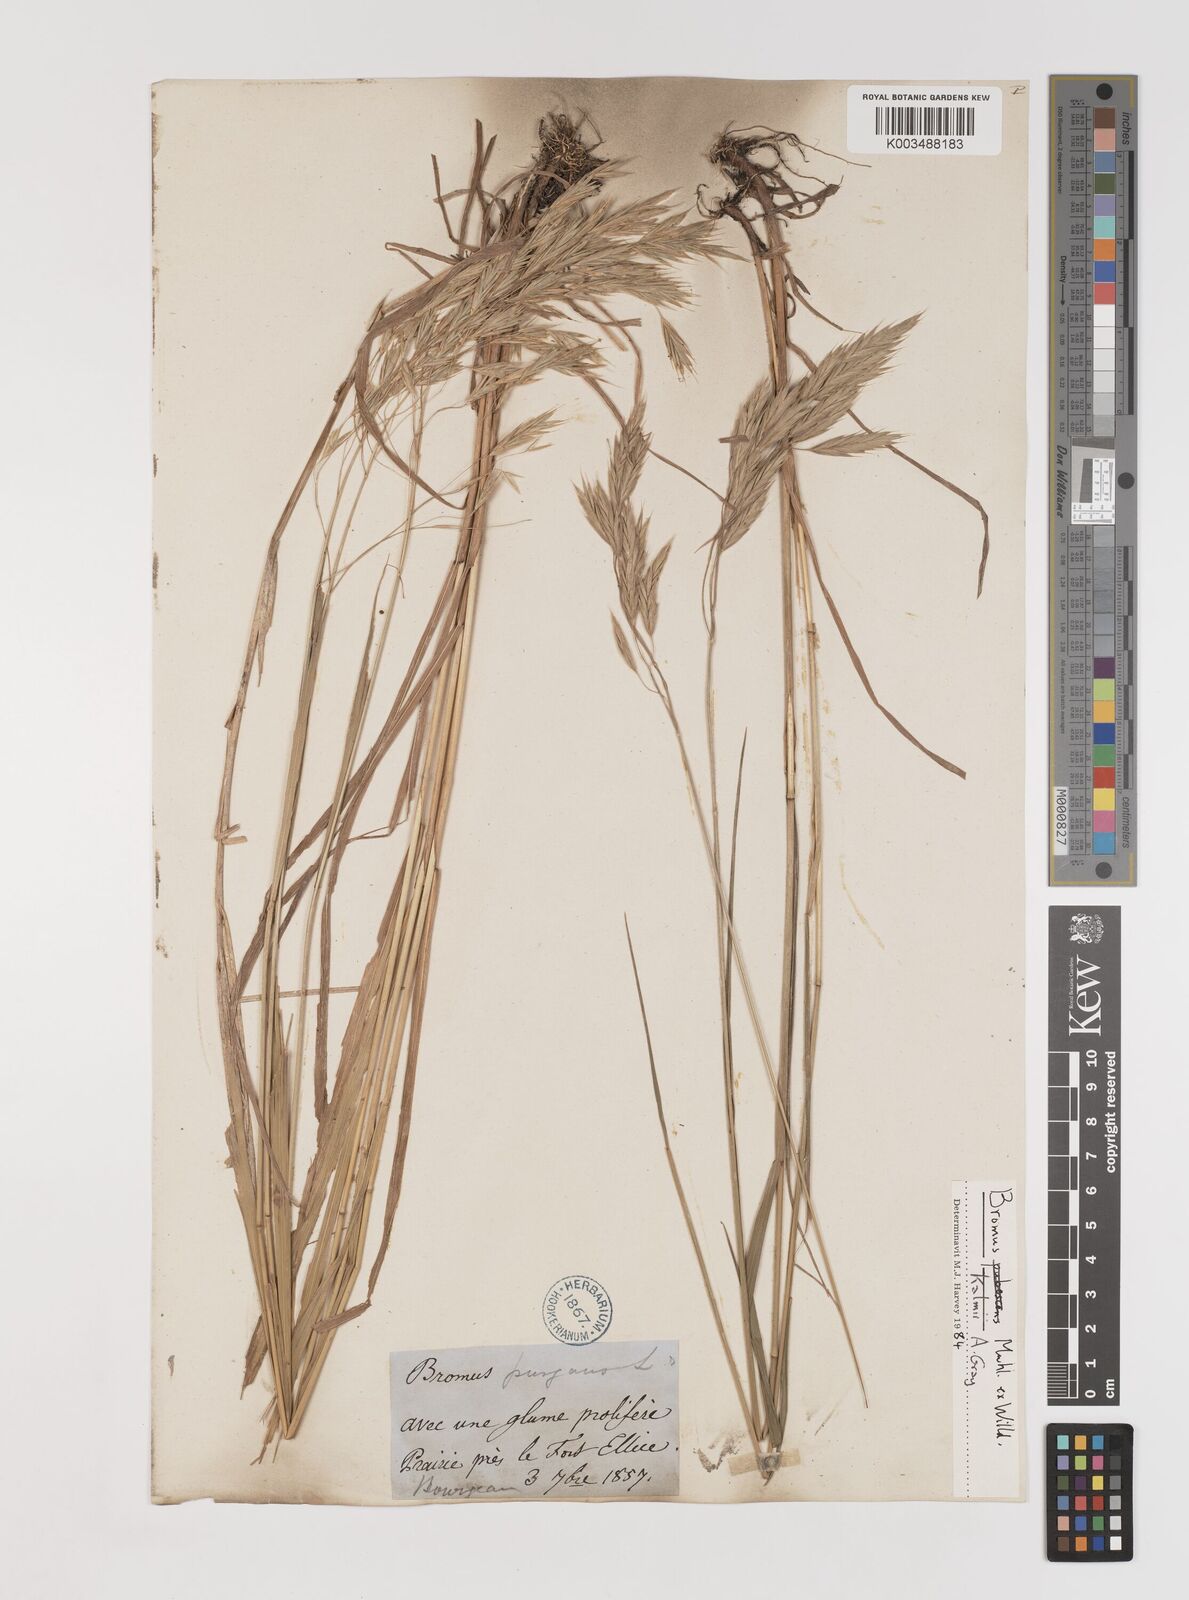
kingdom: Plantae
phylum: Tracheophyta
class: Liliopsida
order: Poales
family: Poaceae
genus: Bromus
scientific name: Bromus kalmii
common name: Kalm brome
